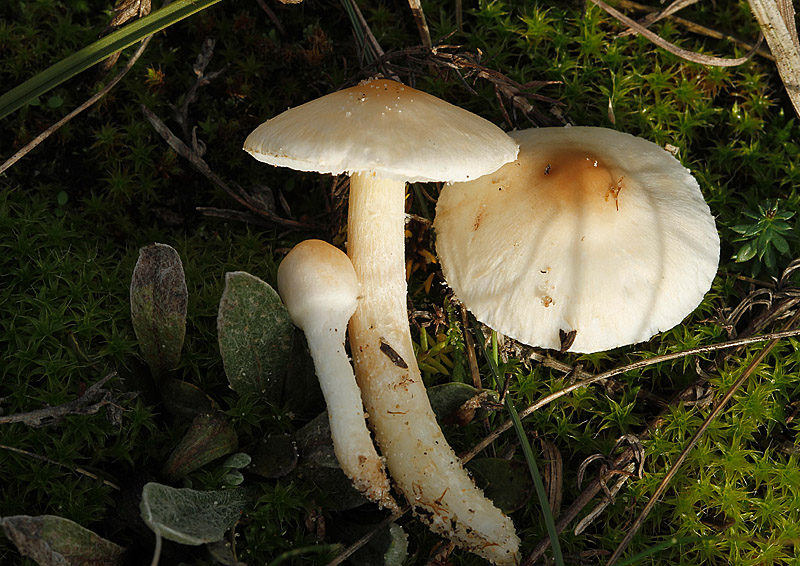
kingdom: Fungi
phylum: Basidiomycota
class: Agaricomycetes
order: Agaricales
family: Agaricaceae
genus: Lepiota
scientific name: Lepiota erminea
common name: hvid parasolhat
